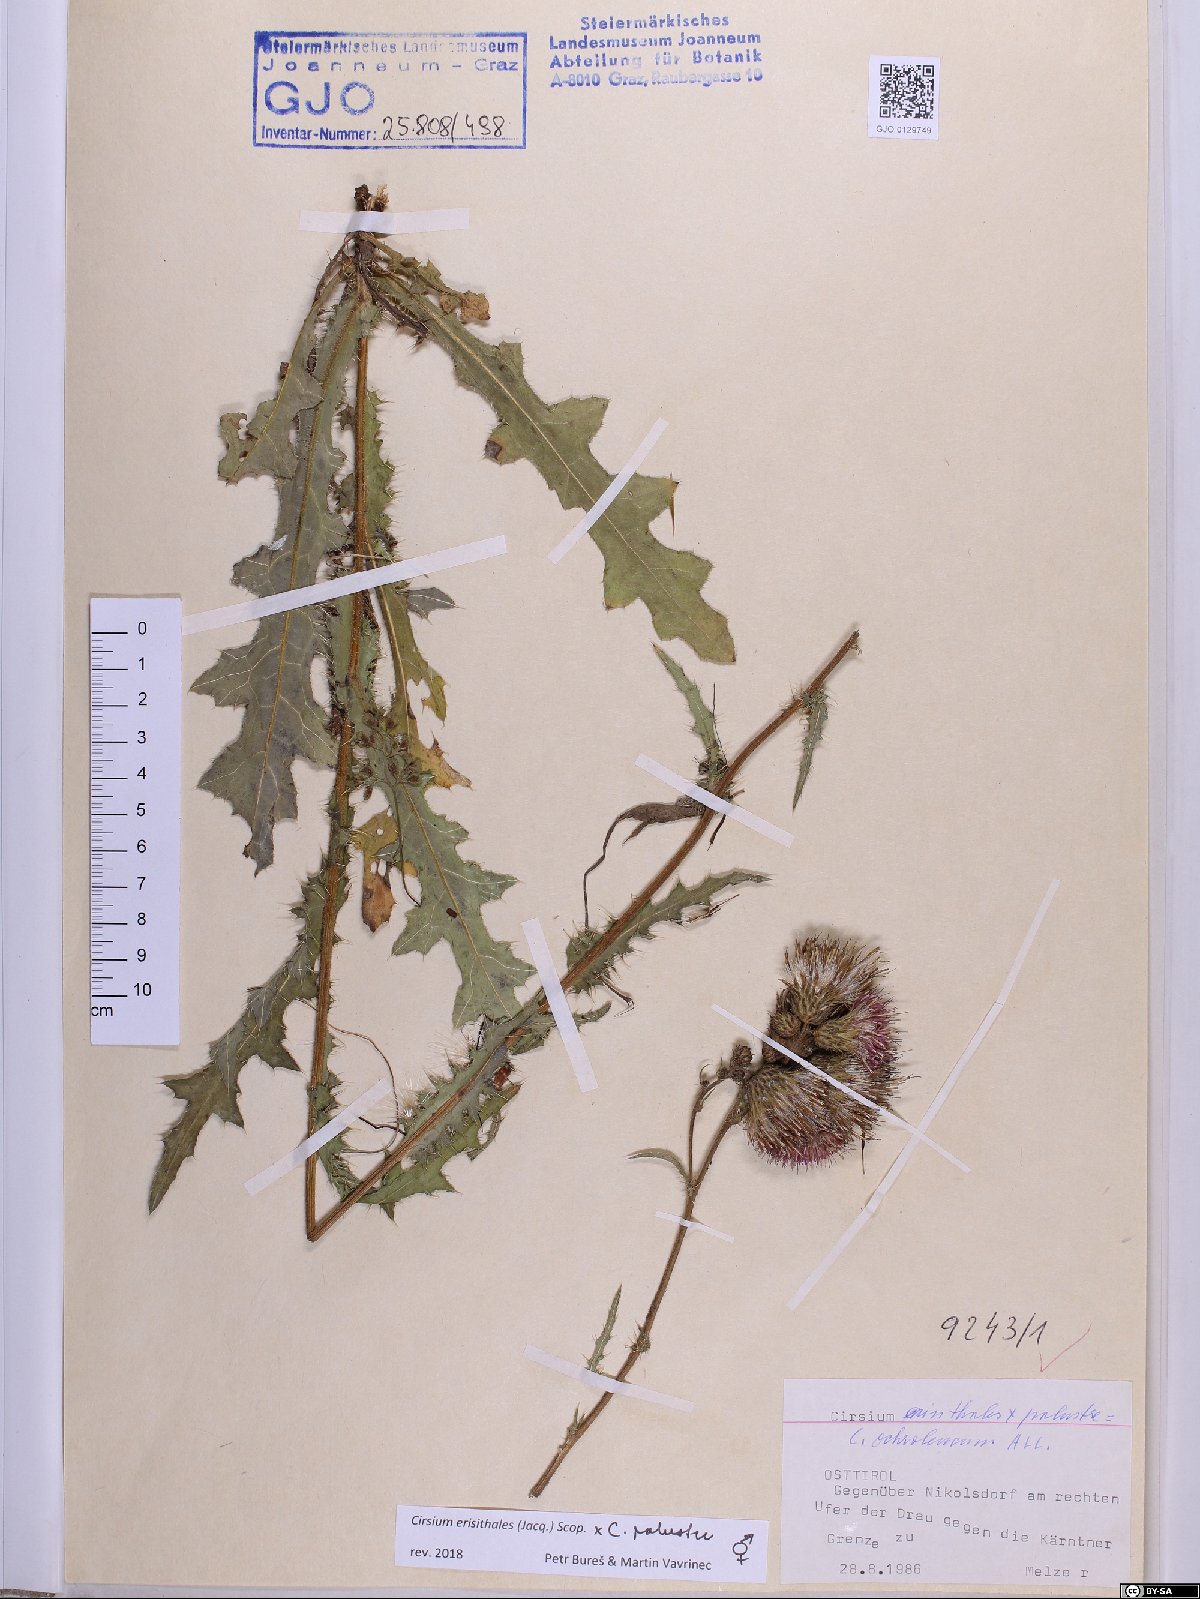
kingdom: Plantae
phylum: Tracheophyta
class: Magnoliopsida
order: Asterales
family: Asteraceae
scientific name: Asteraceae
